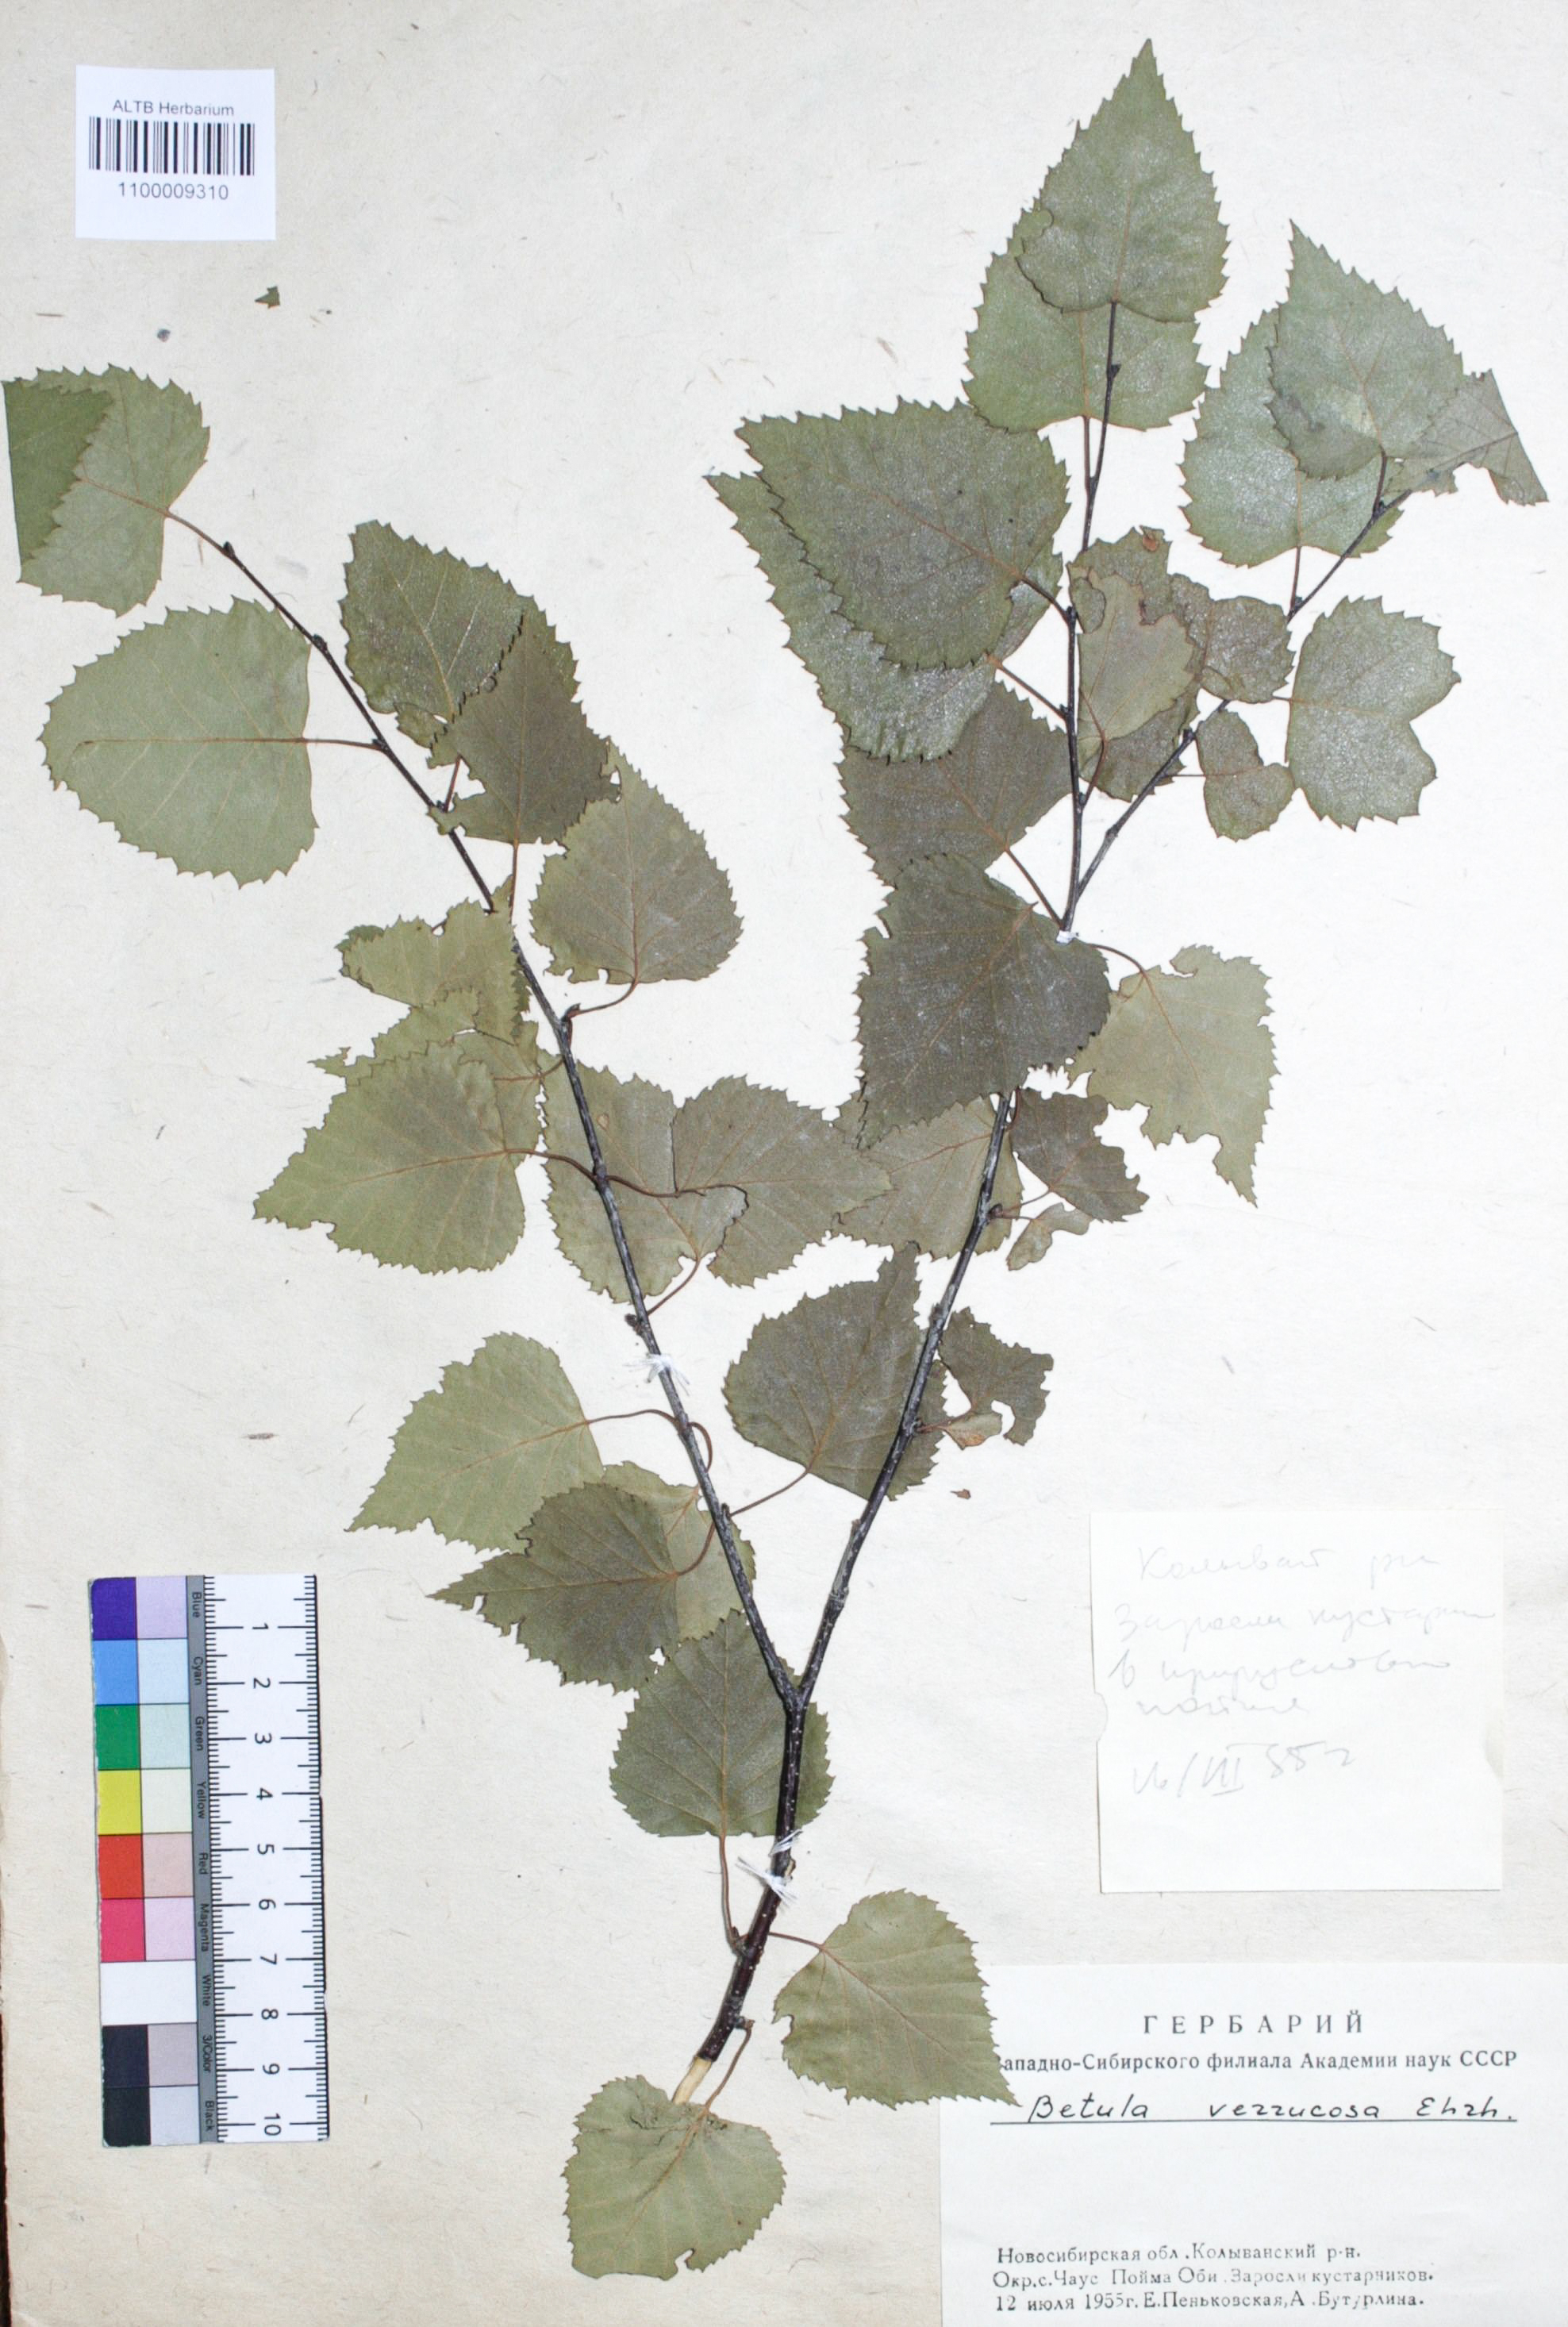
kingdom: Plantae
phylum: Tracheophyta
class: Magnoliopsida
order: Fagales
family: Betulaceae
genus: Betula
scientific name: Betula pendula
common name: Silver birch
